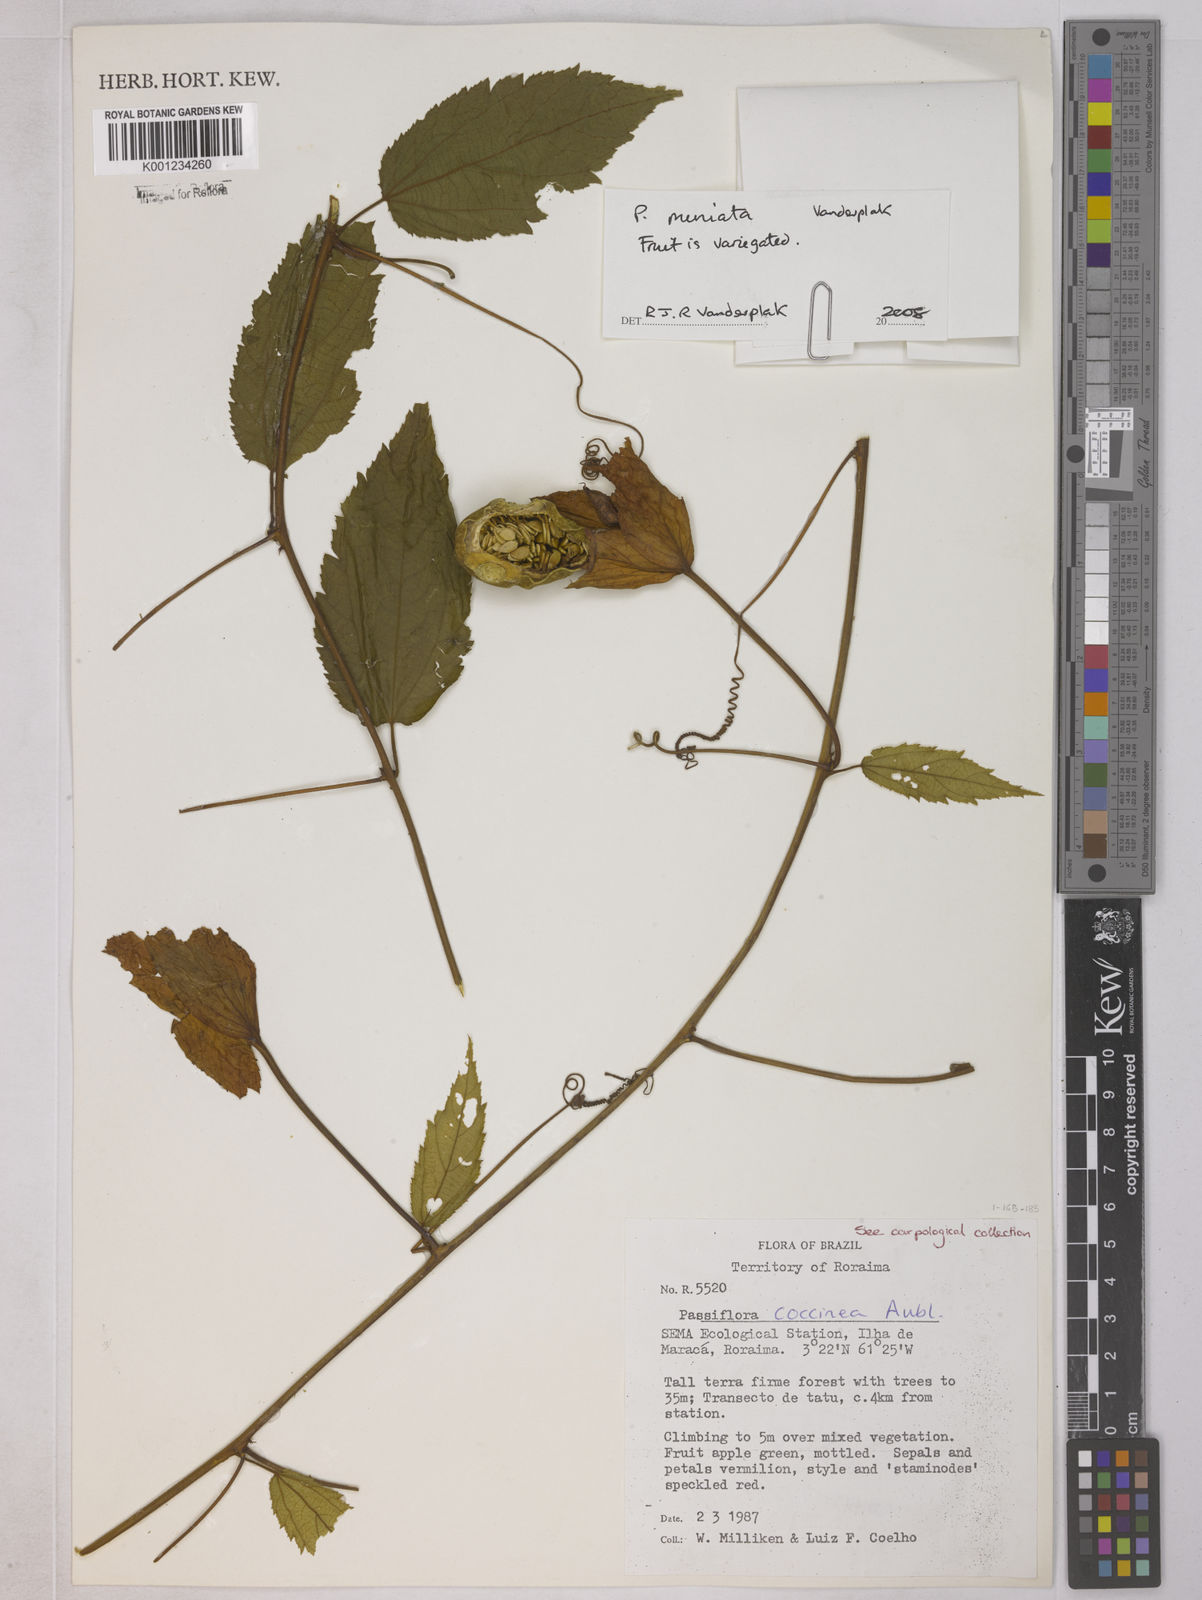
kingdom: Plantae
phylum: Tracheophyta
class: Magnoliopsida
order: Malpighiales
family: Passifloraceae
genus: Passiflora
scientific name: Passiflora coccinea
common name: Scarlet passionflower
